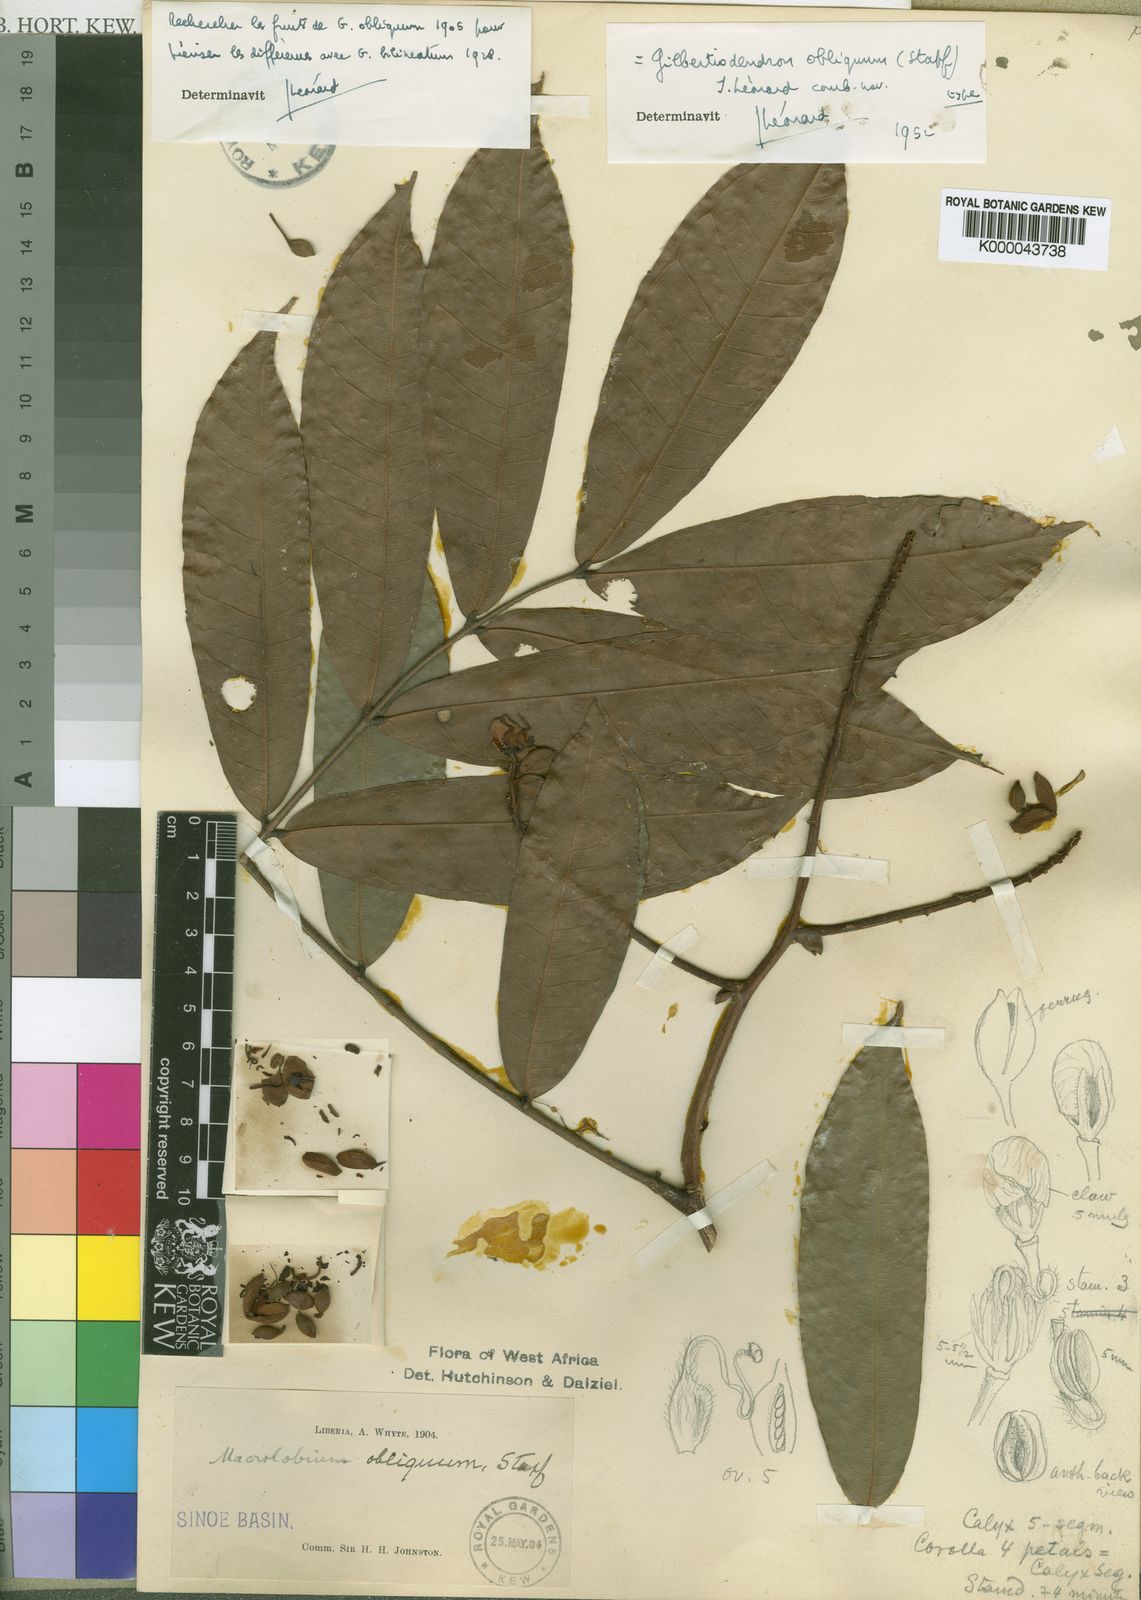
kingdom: Plantae
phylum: Tracheophyta
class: Magnoliopsida
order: Fabales
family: Fabaceae
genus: Gilbertiodendron
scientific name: Gilbertiodendron
